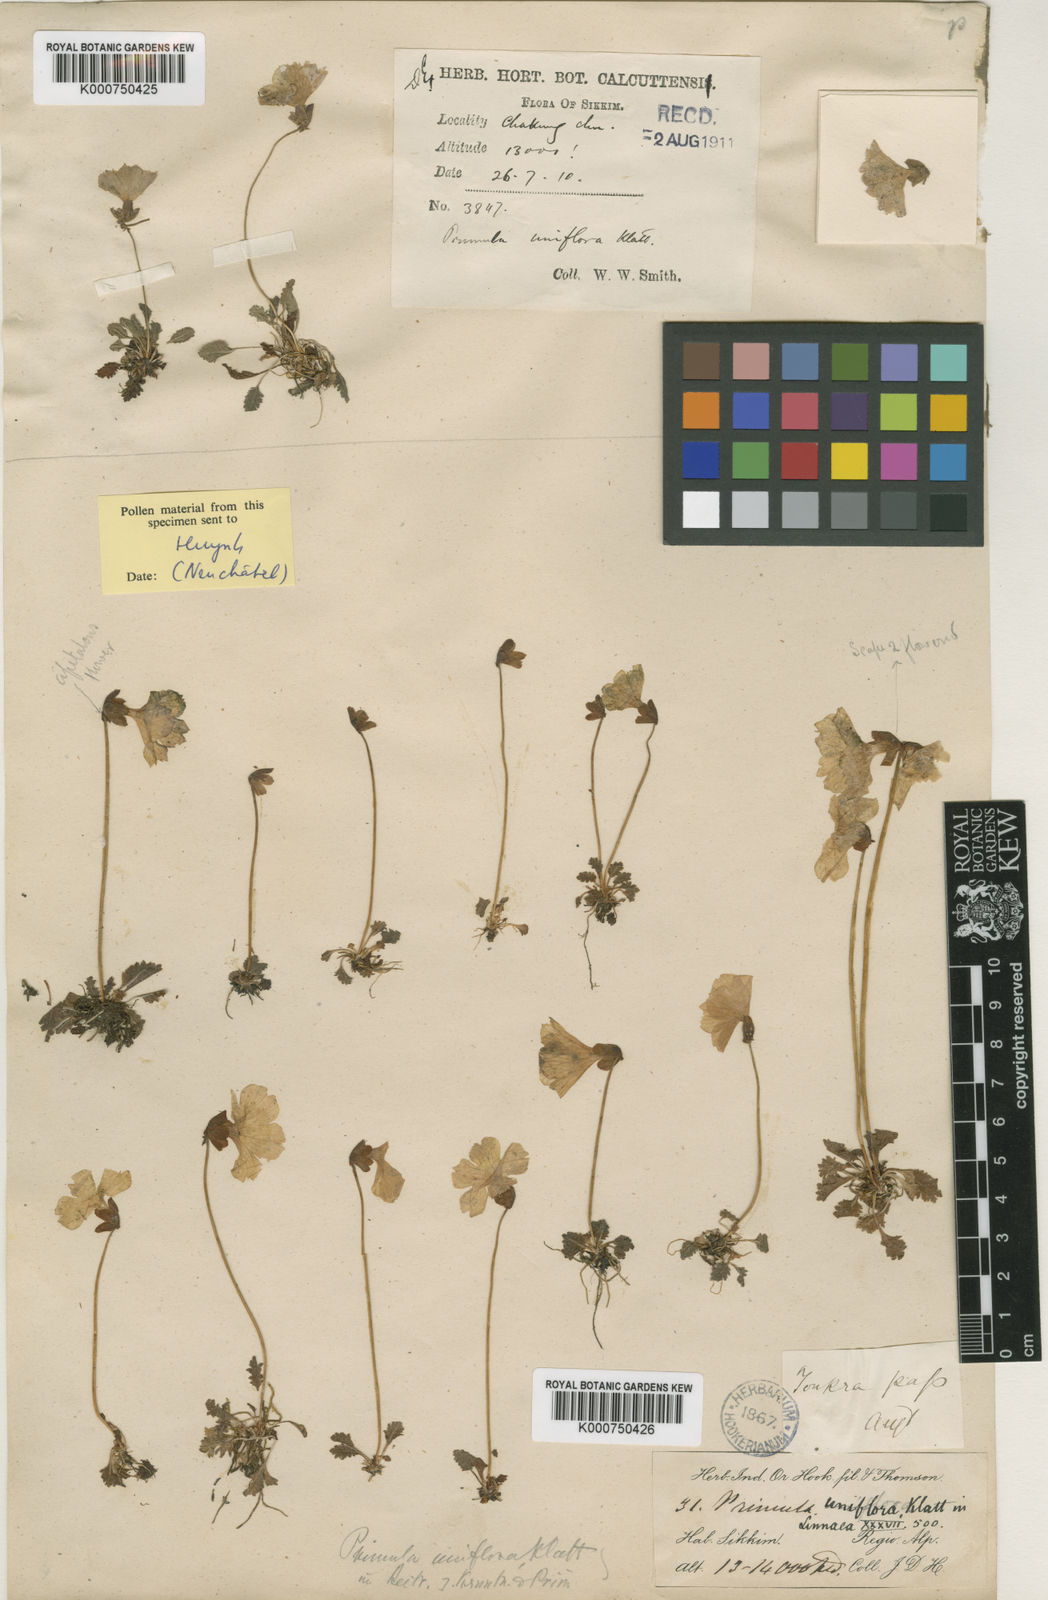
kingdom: Plantae
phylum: Tracheophyta
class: Magnoliopsida
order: Ericales
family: Primulaceae
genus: Primula
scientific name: Primula klattii
